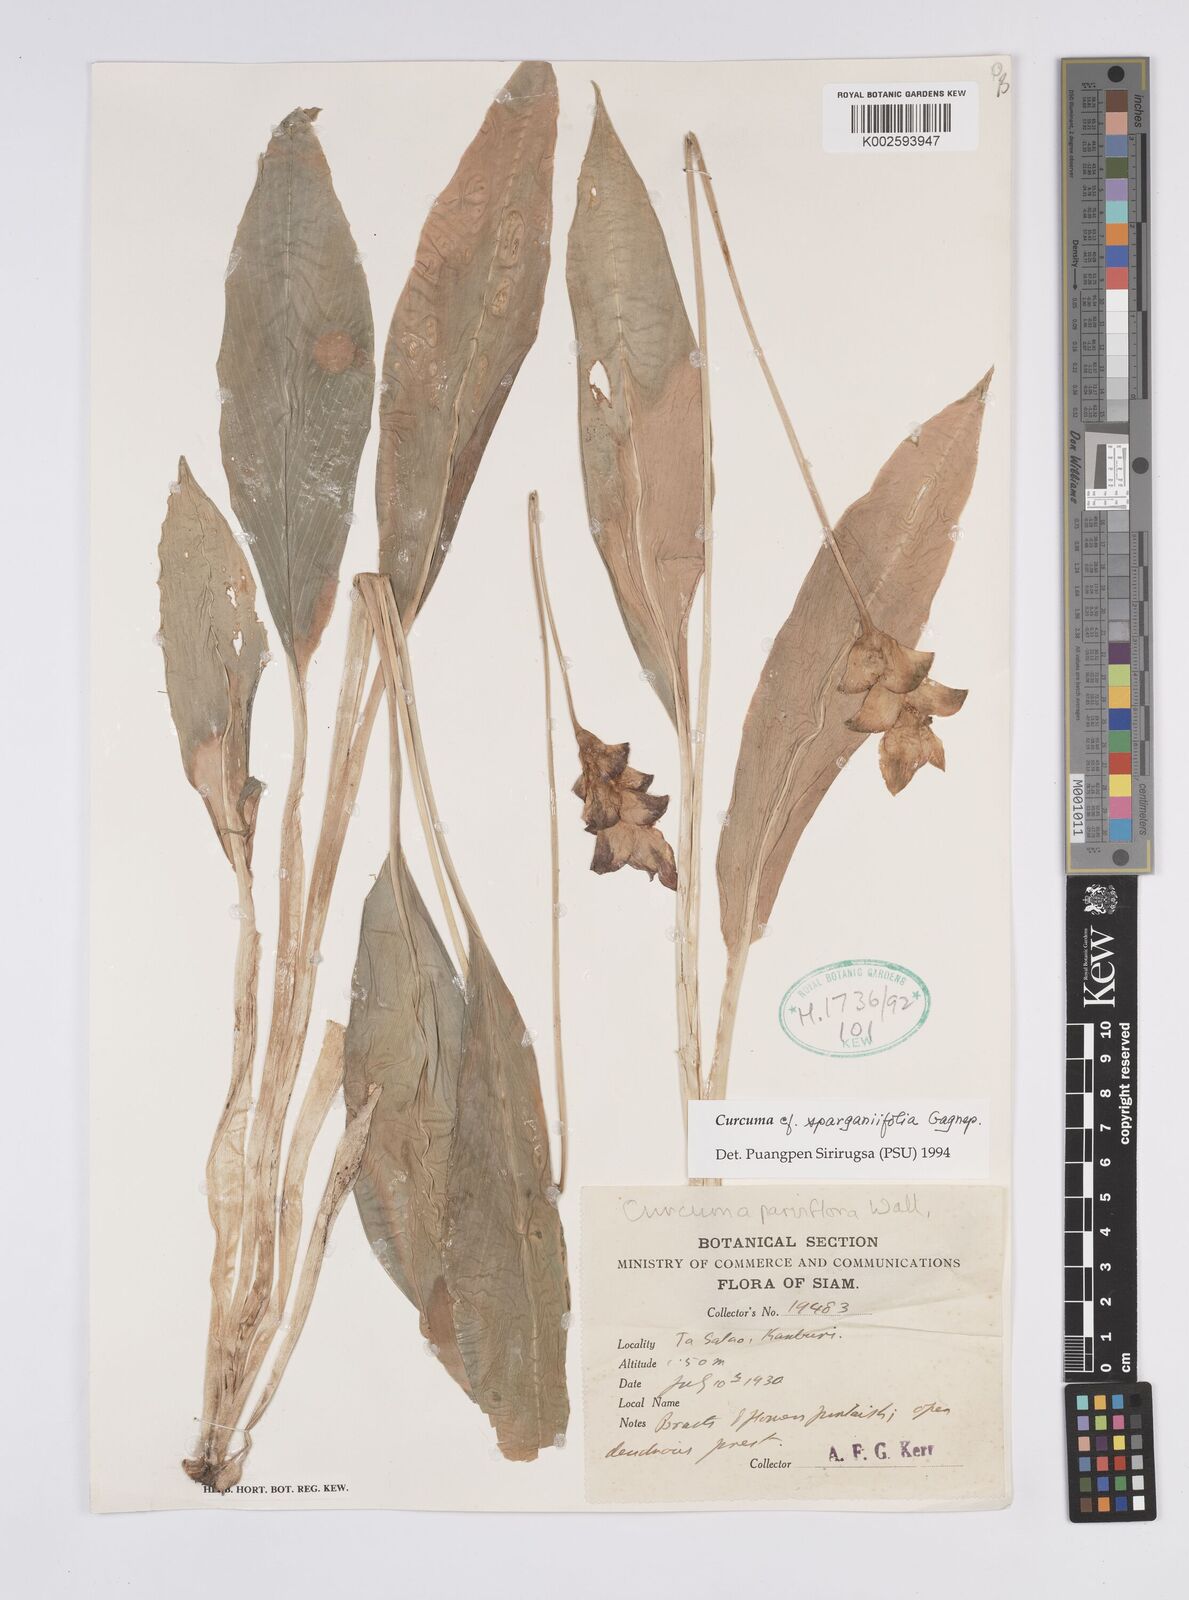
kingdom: Plantae
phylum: Tracheophyta
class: Liliopsida
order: Zingiberales
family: Zingiberaceae
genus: Curcuma
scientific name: Curcuma sparganiifolia
